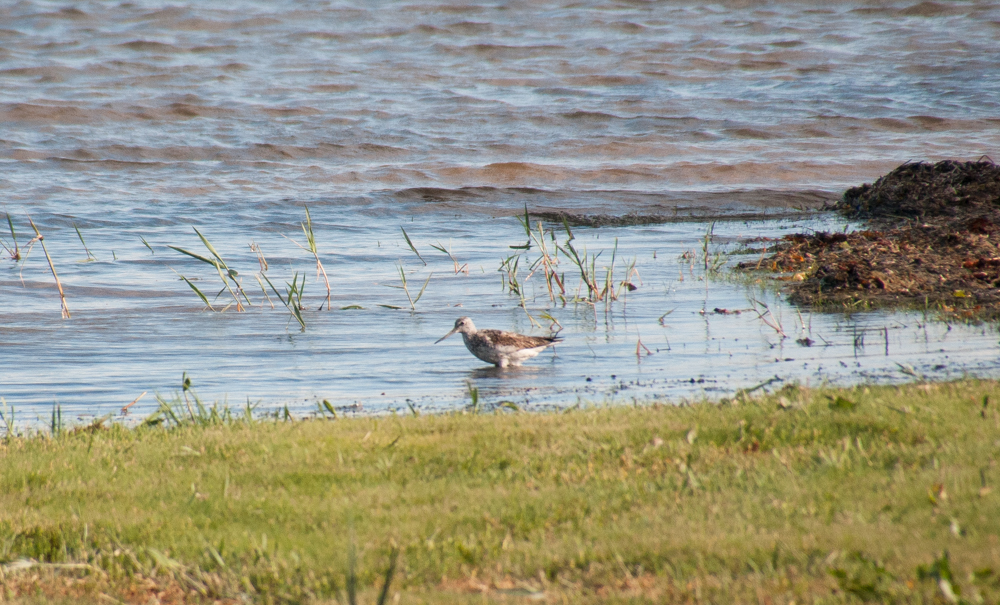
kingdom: Animalia
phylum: Chordata
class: Aves
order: Charadriiformes
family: Scolopacidae
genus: Tringa
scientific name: Tringa nebularia
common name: Common greenshank
